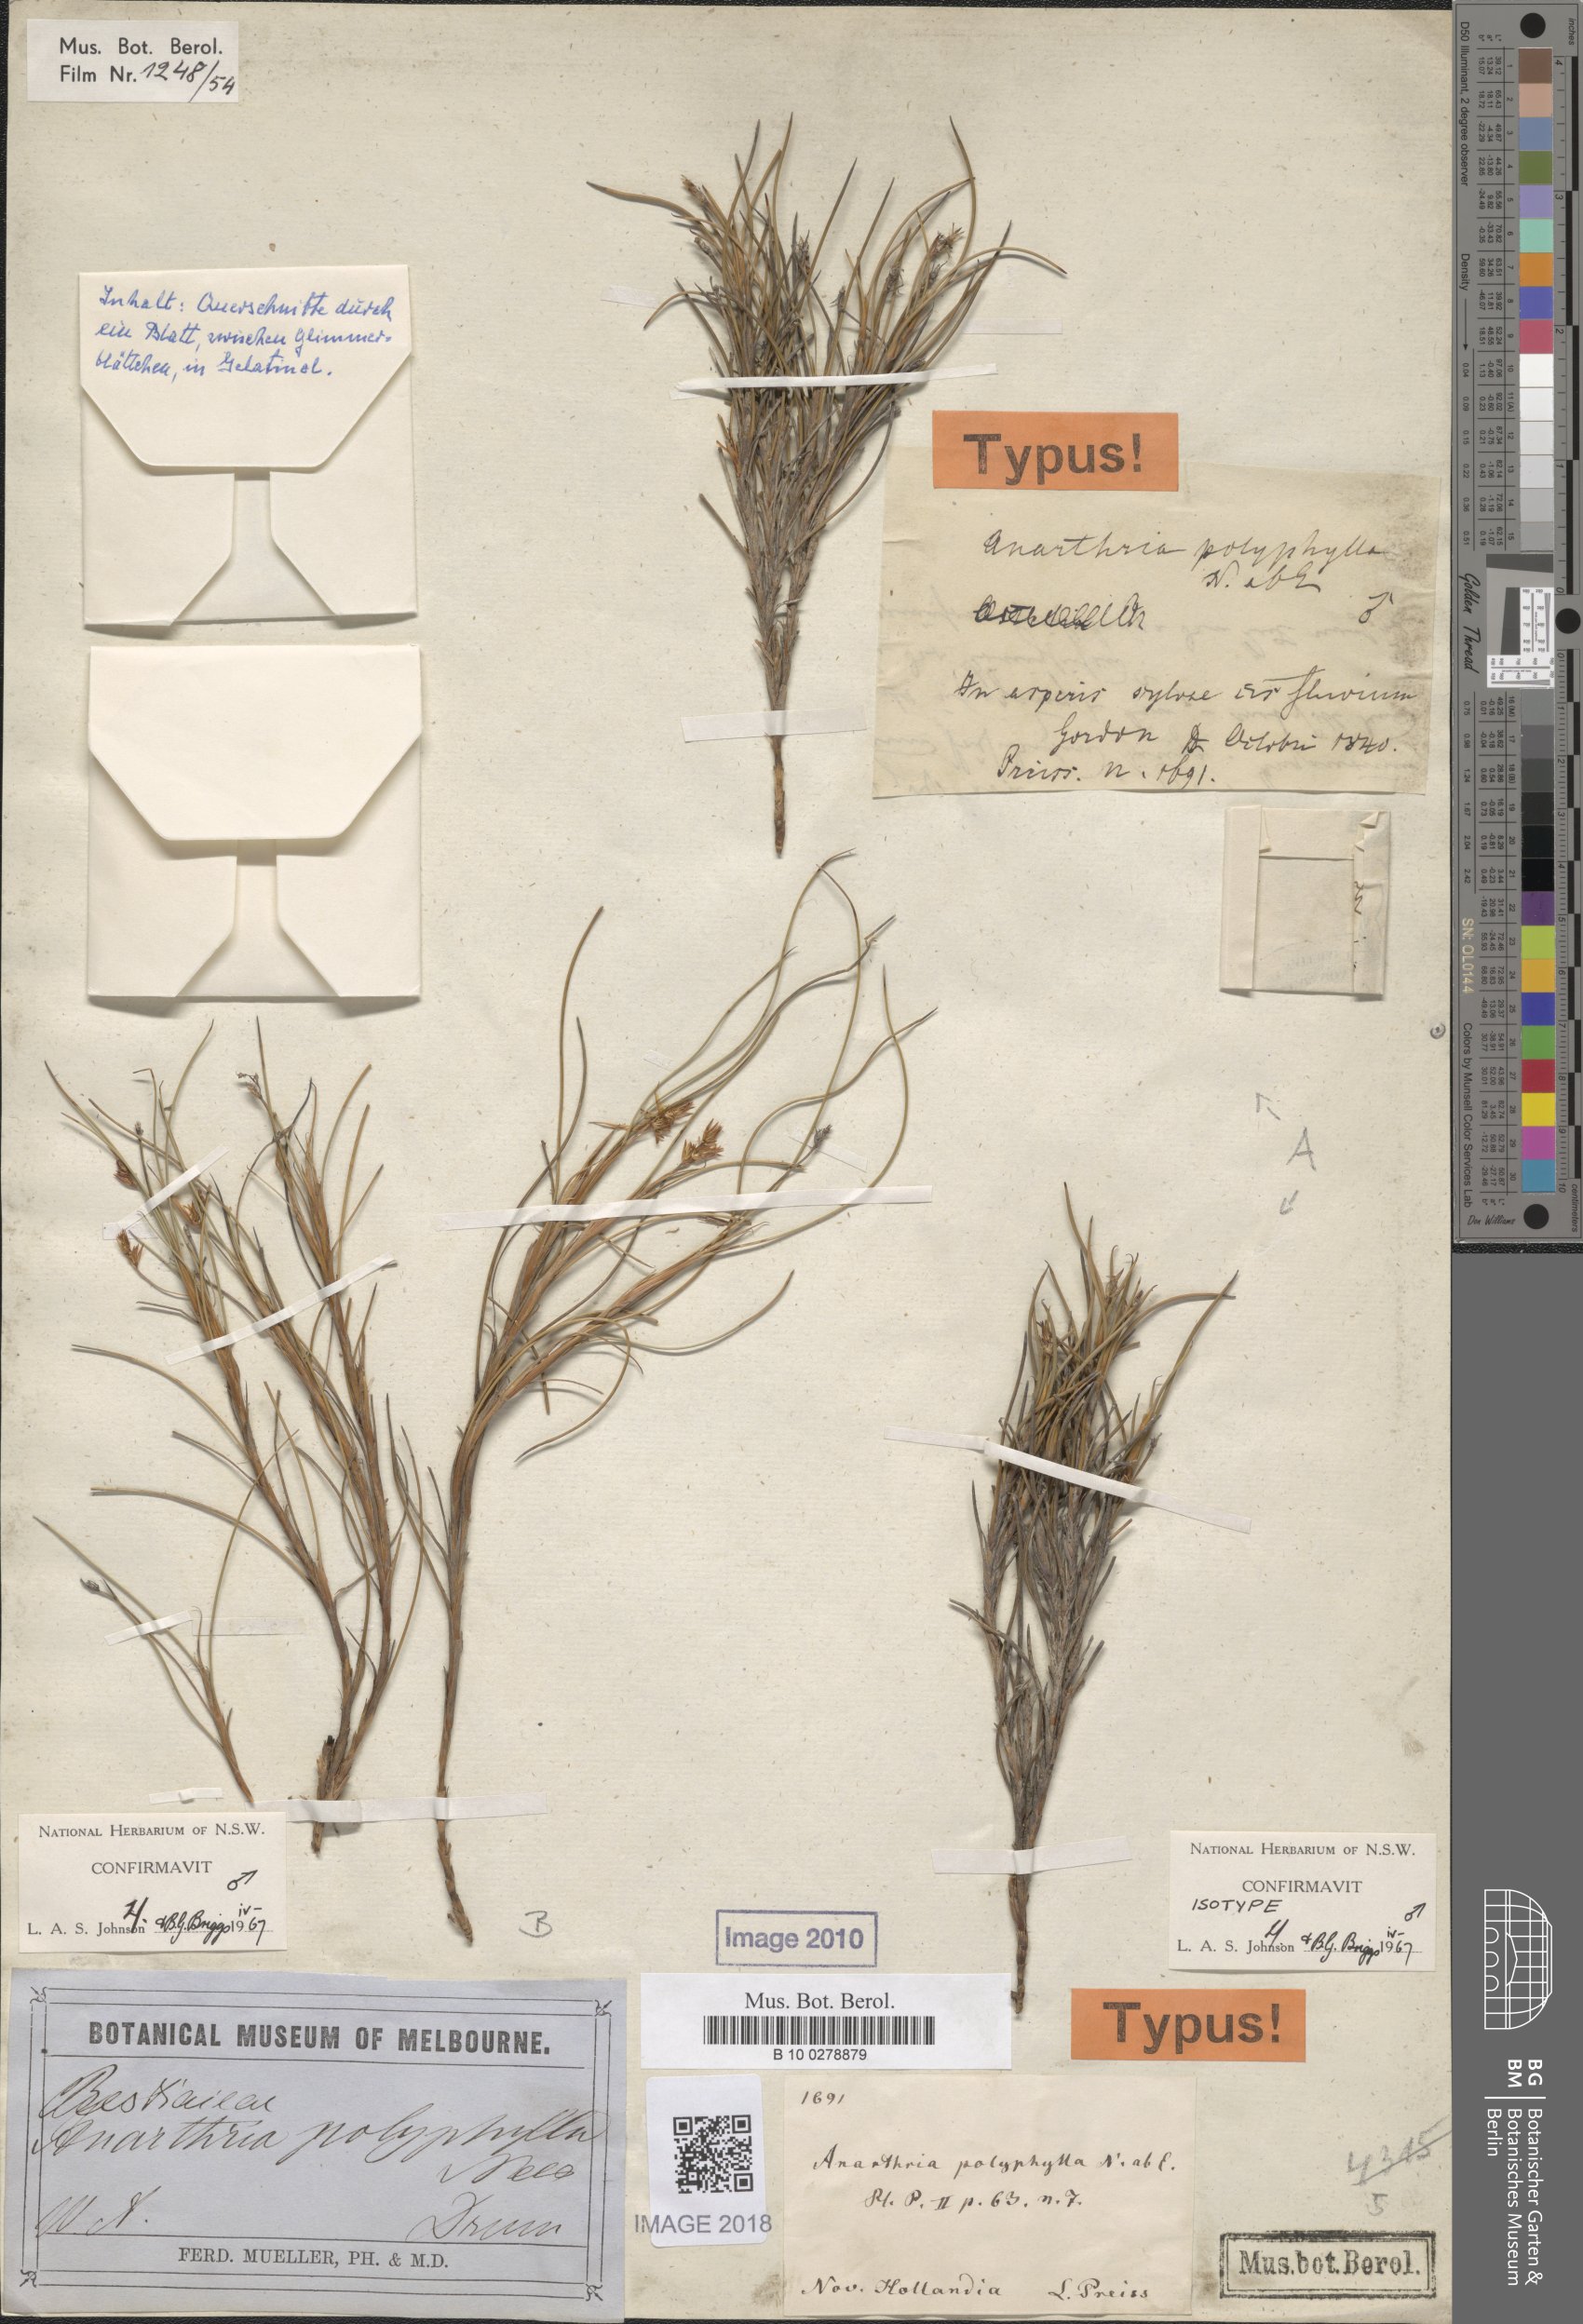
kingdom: Plantae
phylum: Tracheophyta
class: Liliopsida
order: Poales
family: Restionaceae
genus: Anarthria
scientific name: Anarthria polyphylla
